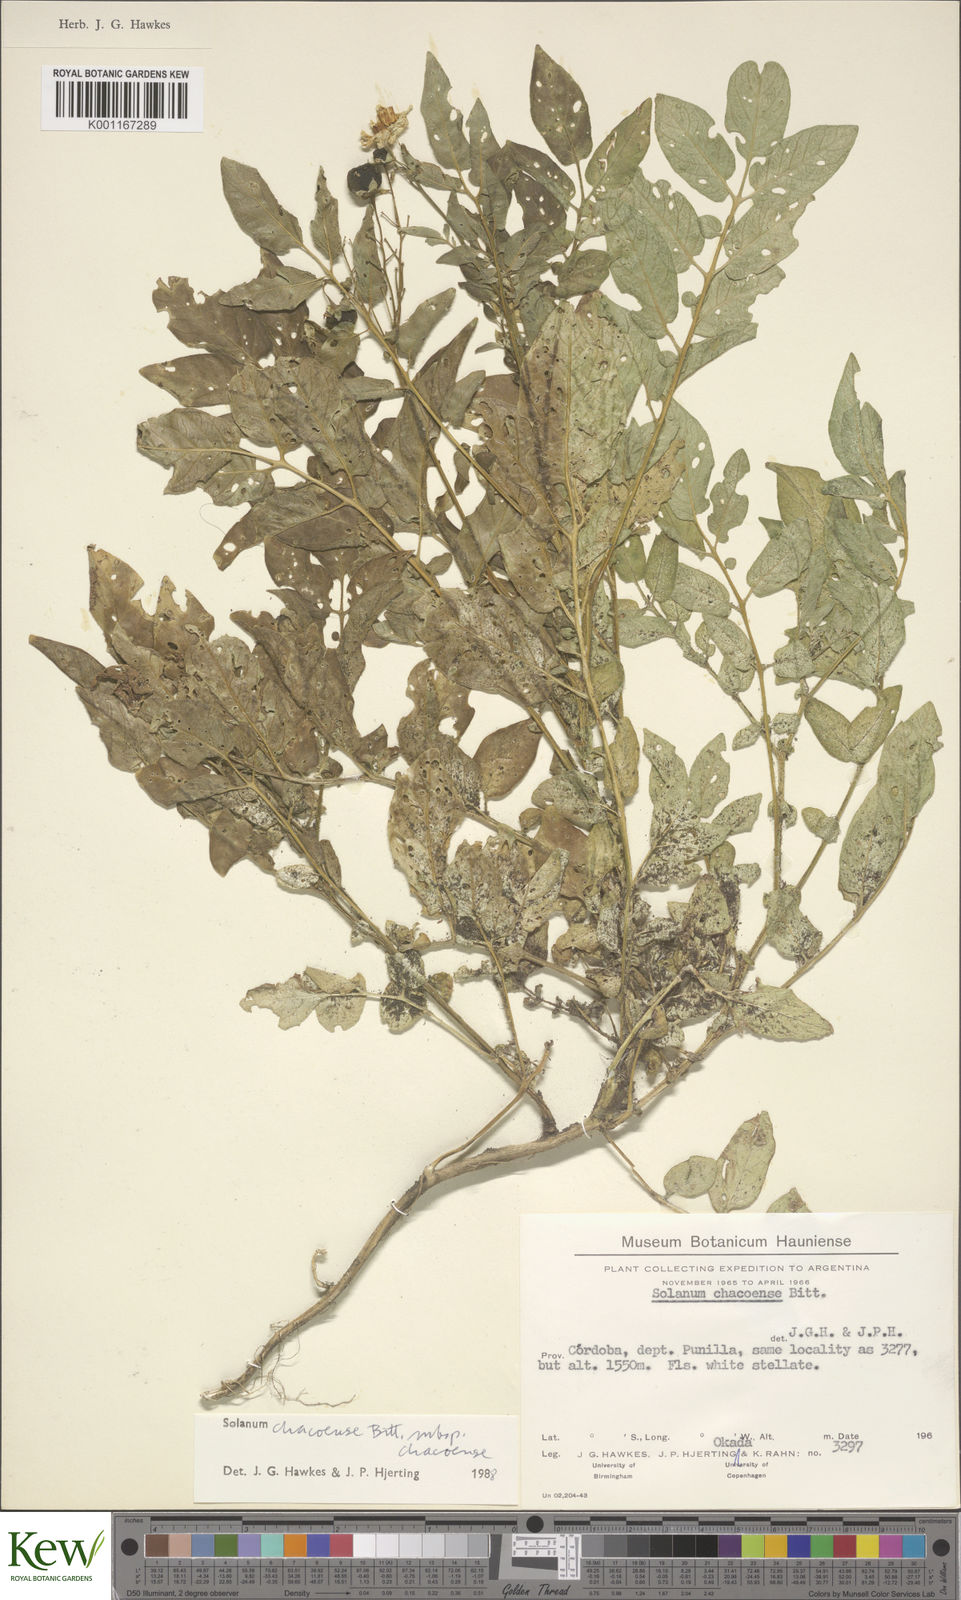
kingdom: Plantae
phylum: Tracheophyta
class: Magnoliopsida
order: Solanales
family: Solanaceae
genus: Solanum
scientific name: Solanum
